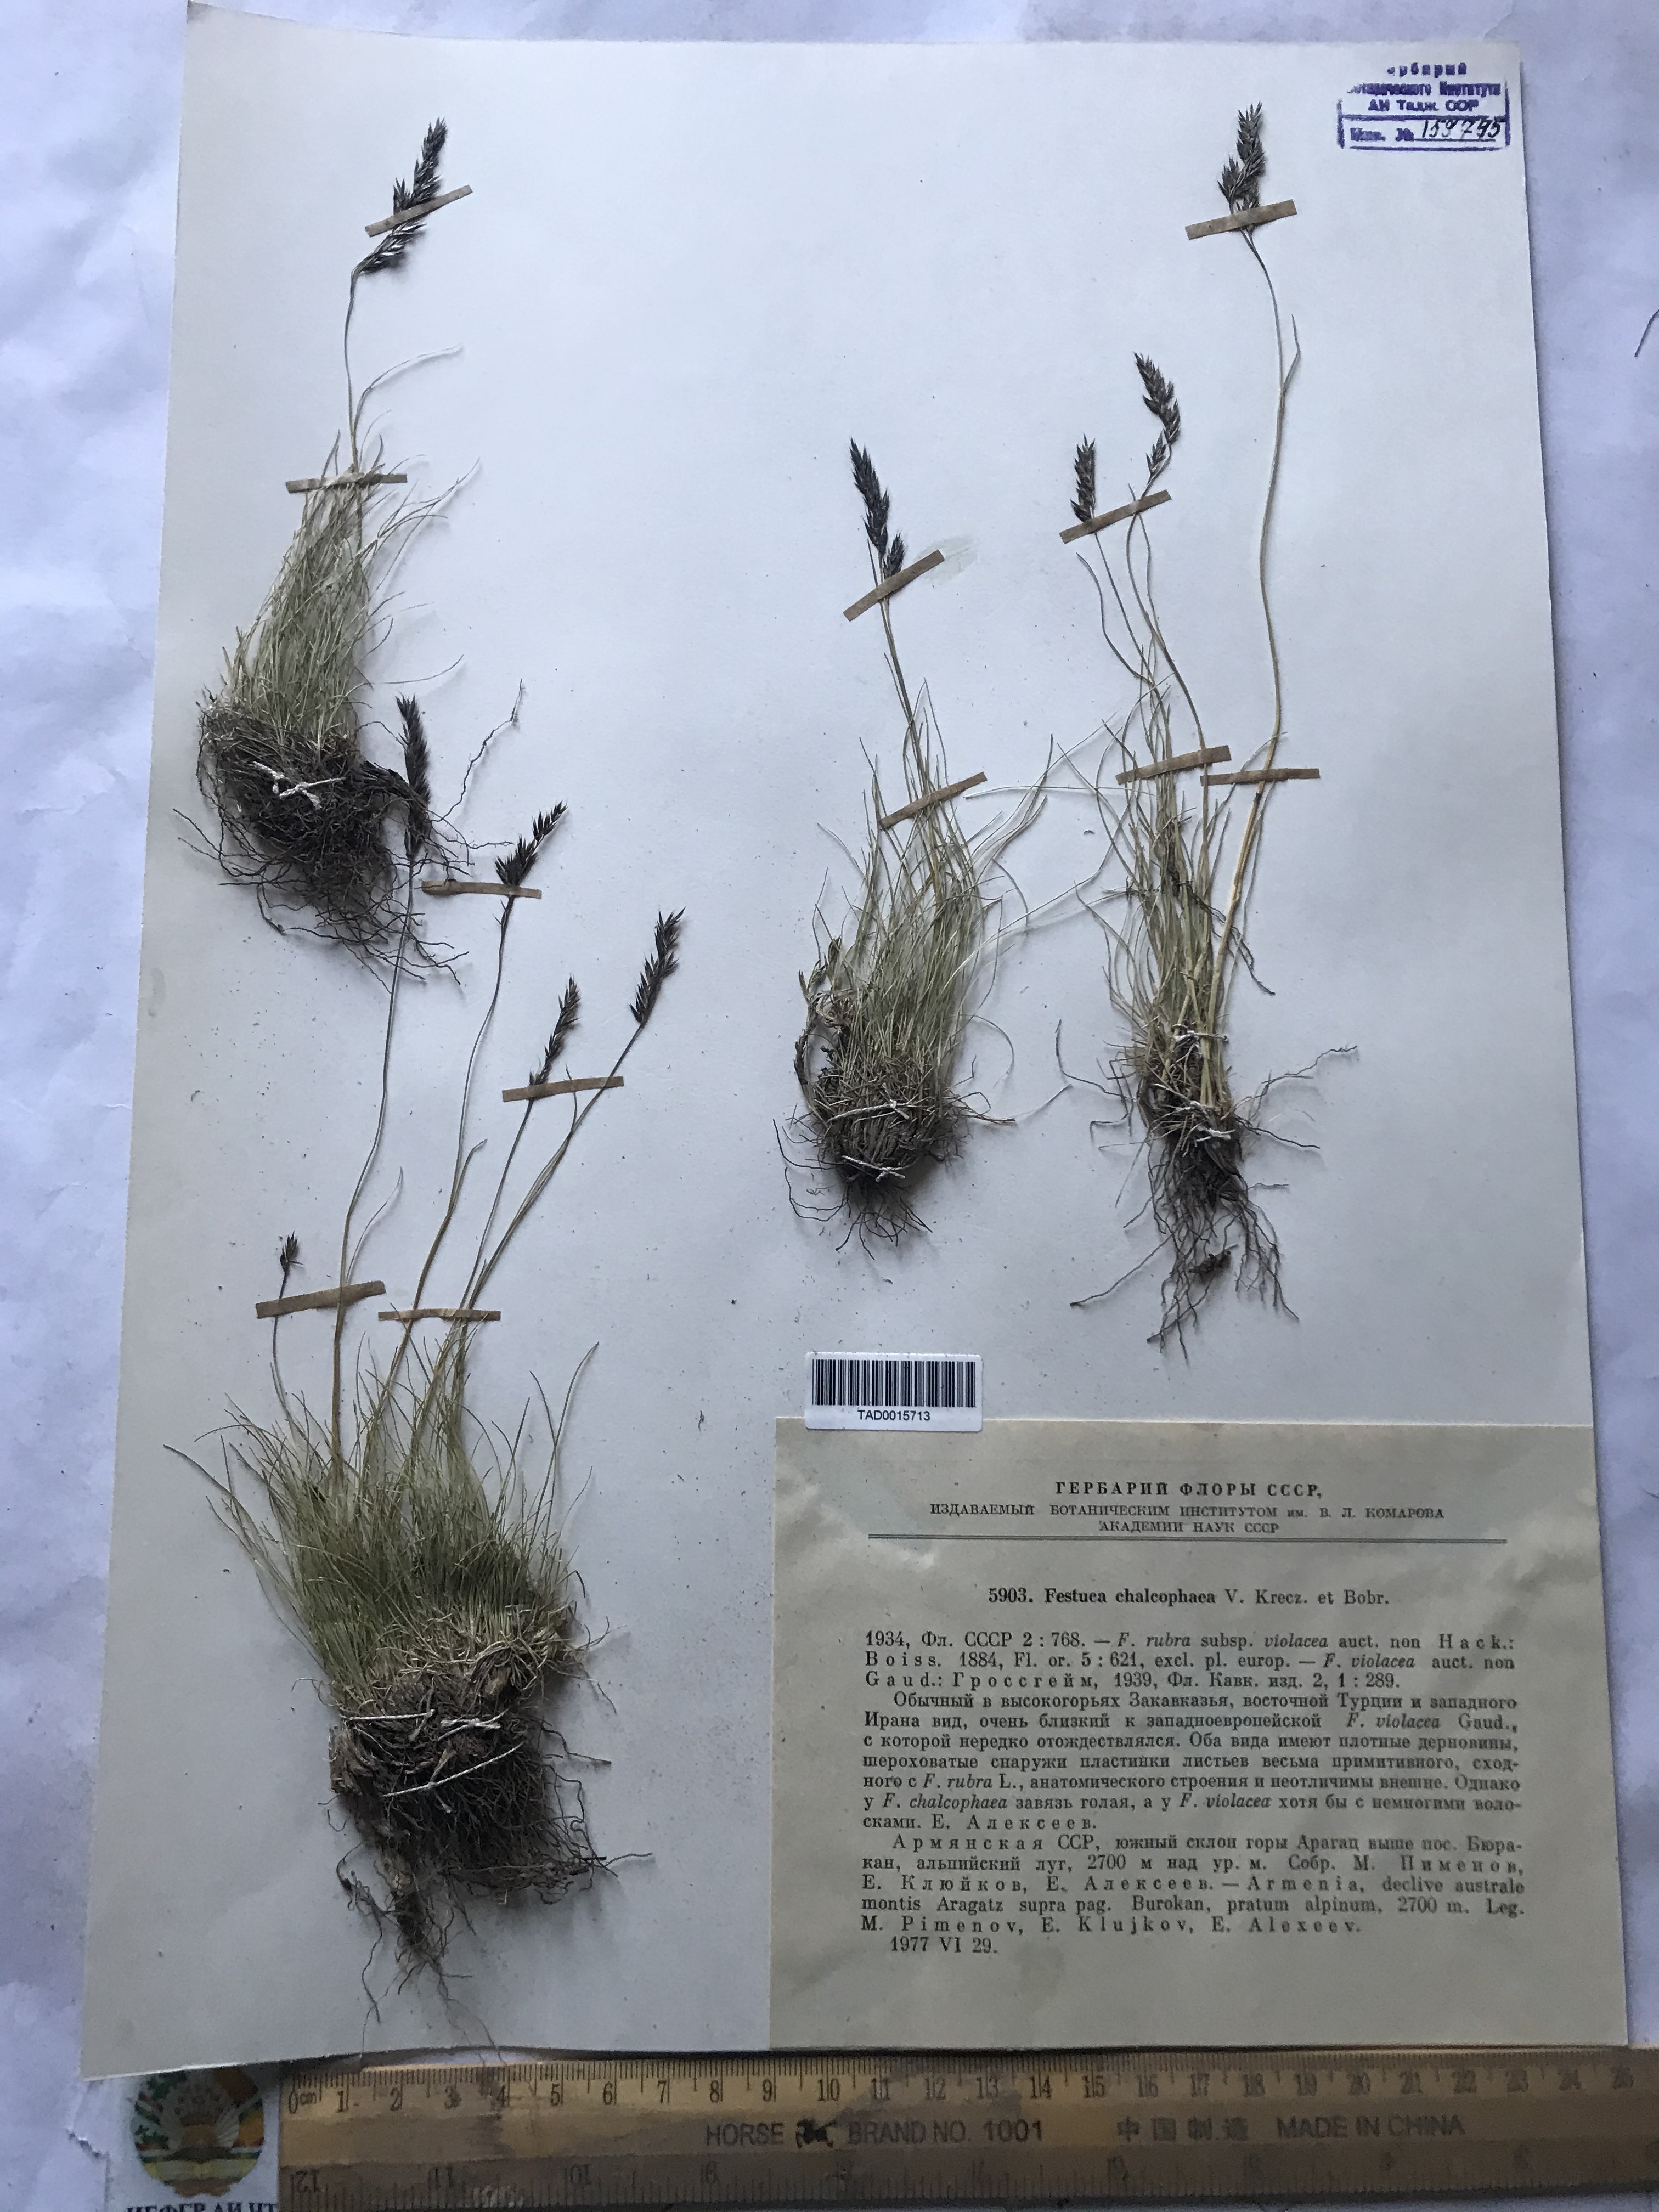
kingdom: Plantae
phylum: Tracheophyta
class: Liliopsida
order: Poales
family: Poaceae
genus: Festuca
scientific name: Festuca chalcophaea
